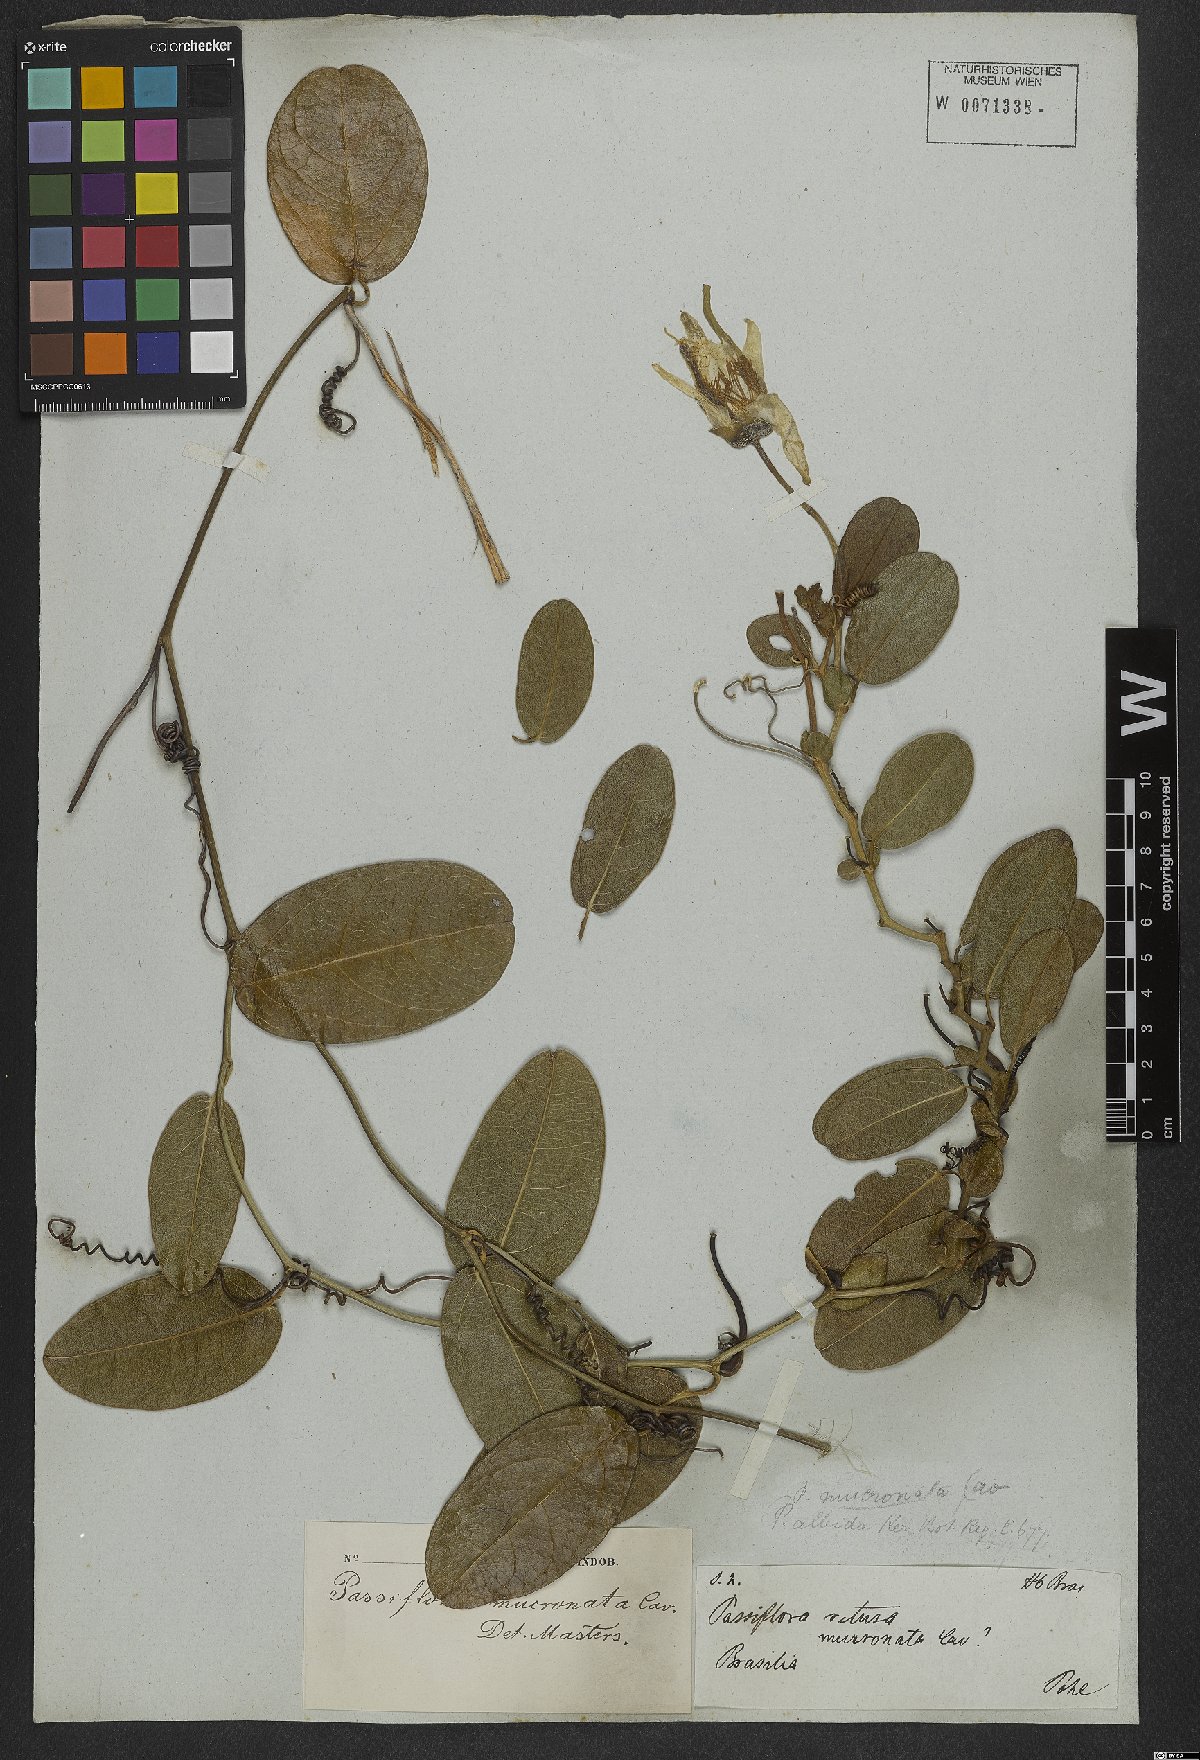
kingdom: Plantae
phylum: Tracheophyta
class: Magnoliopsida
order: Malpighiales
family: Passifloraceae
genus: Passiflora
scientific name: Passiflora mucronata
